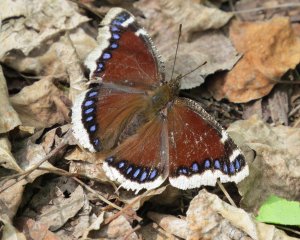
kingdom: Animalia
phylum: Arthropoda
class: Insecta
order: Lepidoptera
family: Nymphalidae
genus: Nymphalis
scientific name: Nymphalis antiopa
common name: Mourning Cloak
